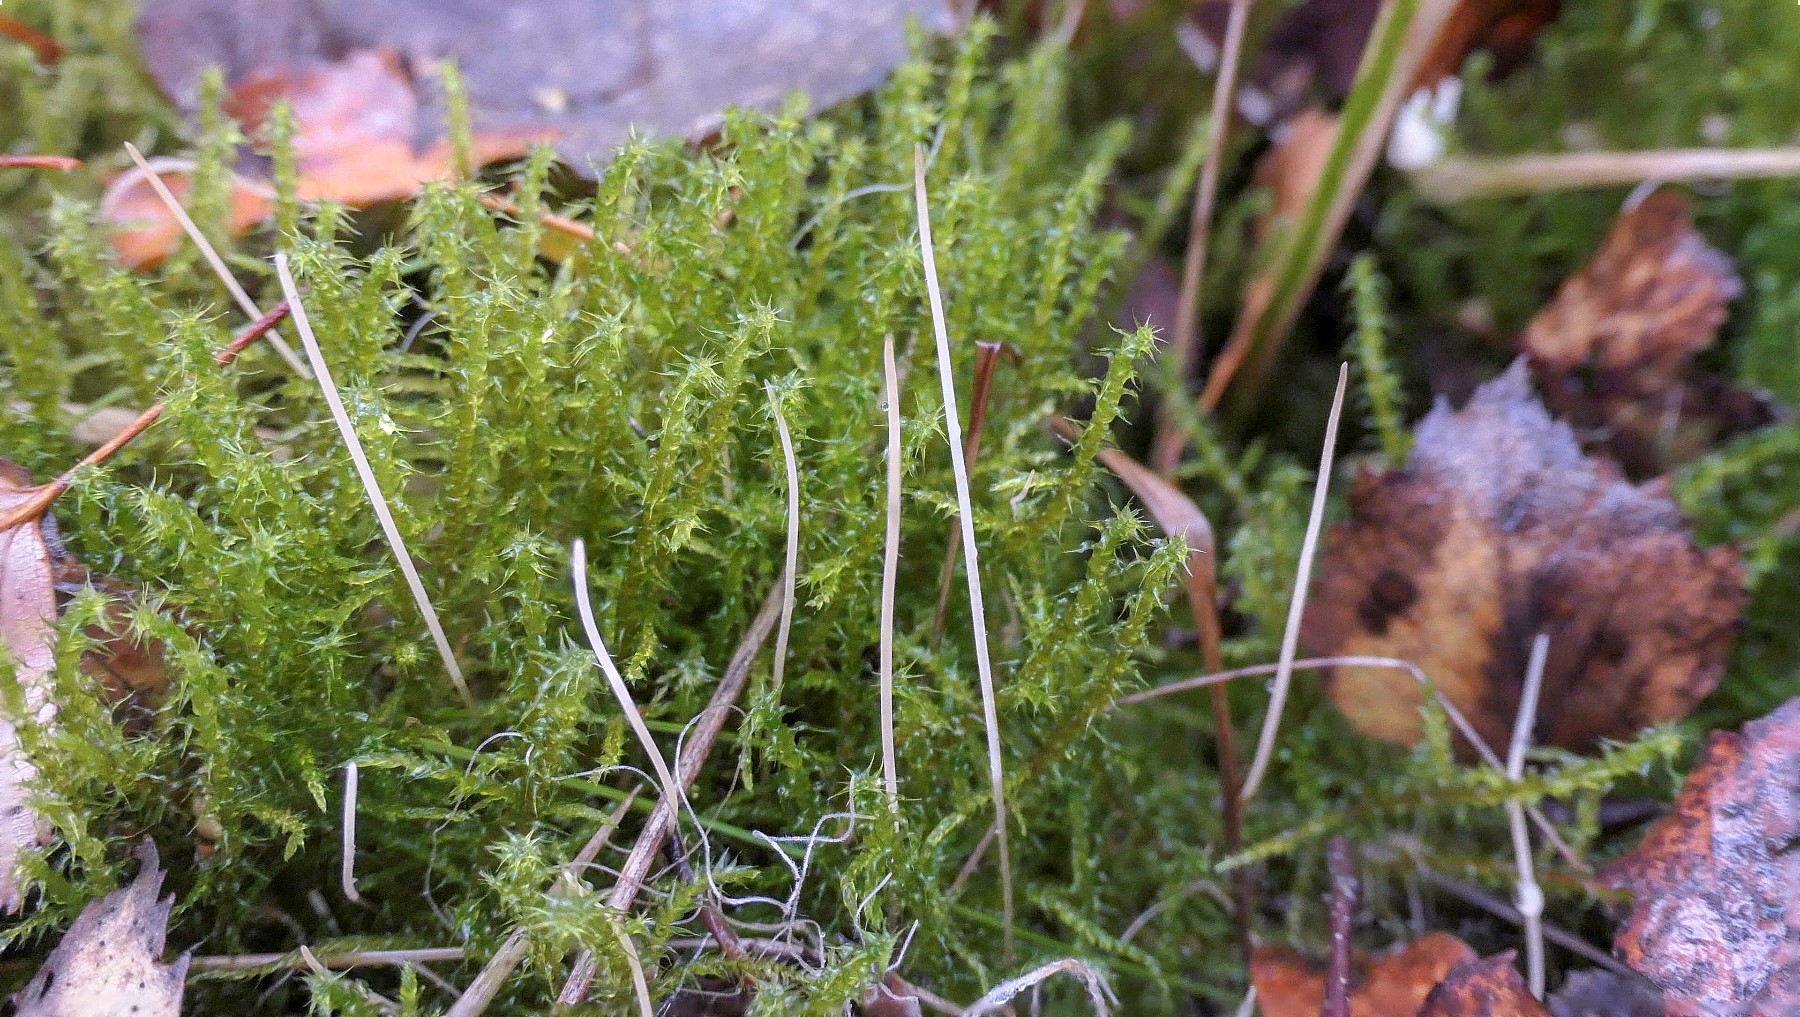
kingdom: Fungi
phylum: Basidiomycota
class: Agaricomycetes
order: Agaricales
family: Typhulaceae
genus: Typhula
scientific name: Typhula juncea
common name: trådagtig rørkølle
